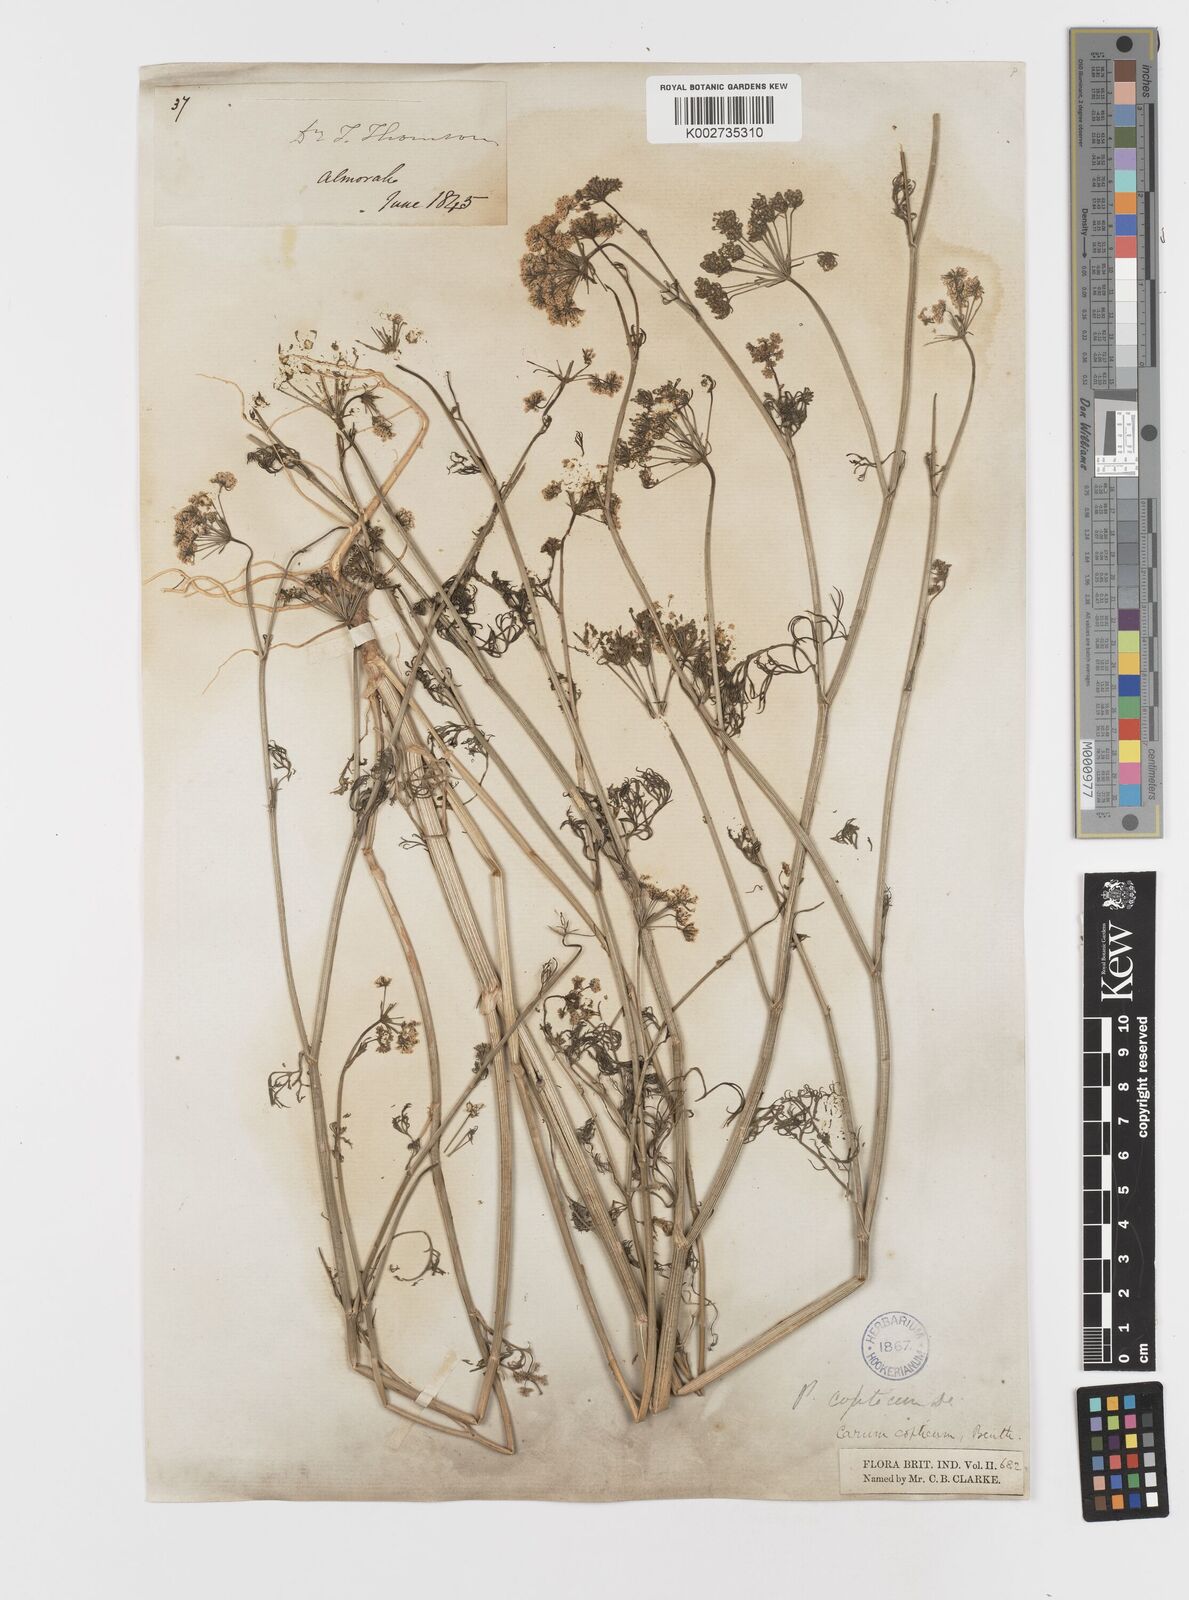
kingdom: Plantae
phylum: Tracheophyta
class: Magnoliopsida
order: Apiales
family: Apiaceae
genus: Trachyspermum
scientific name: Trachyspermum ammi
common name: Ajowan
